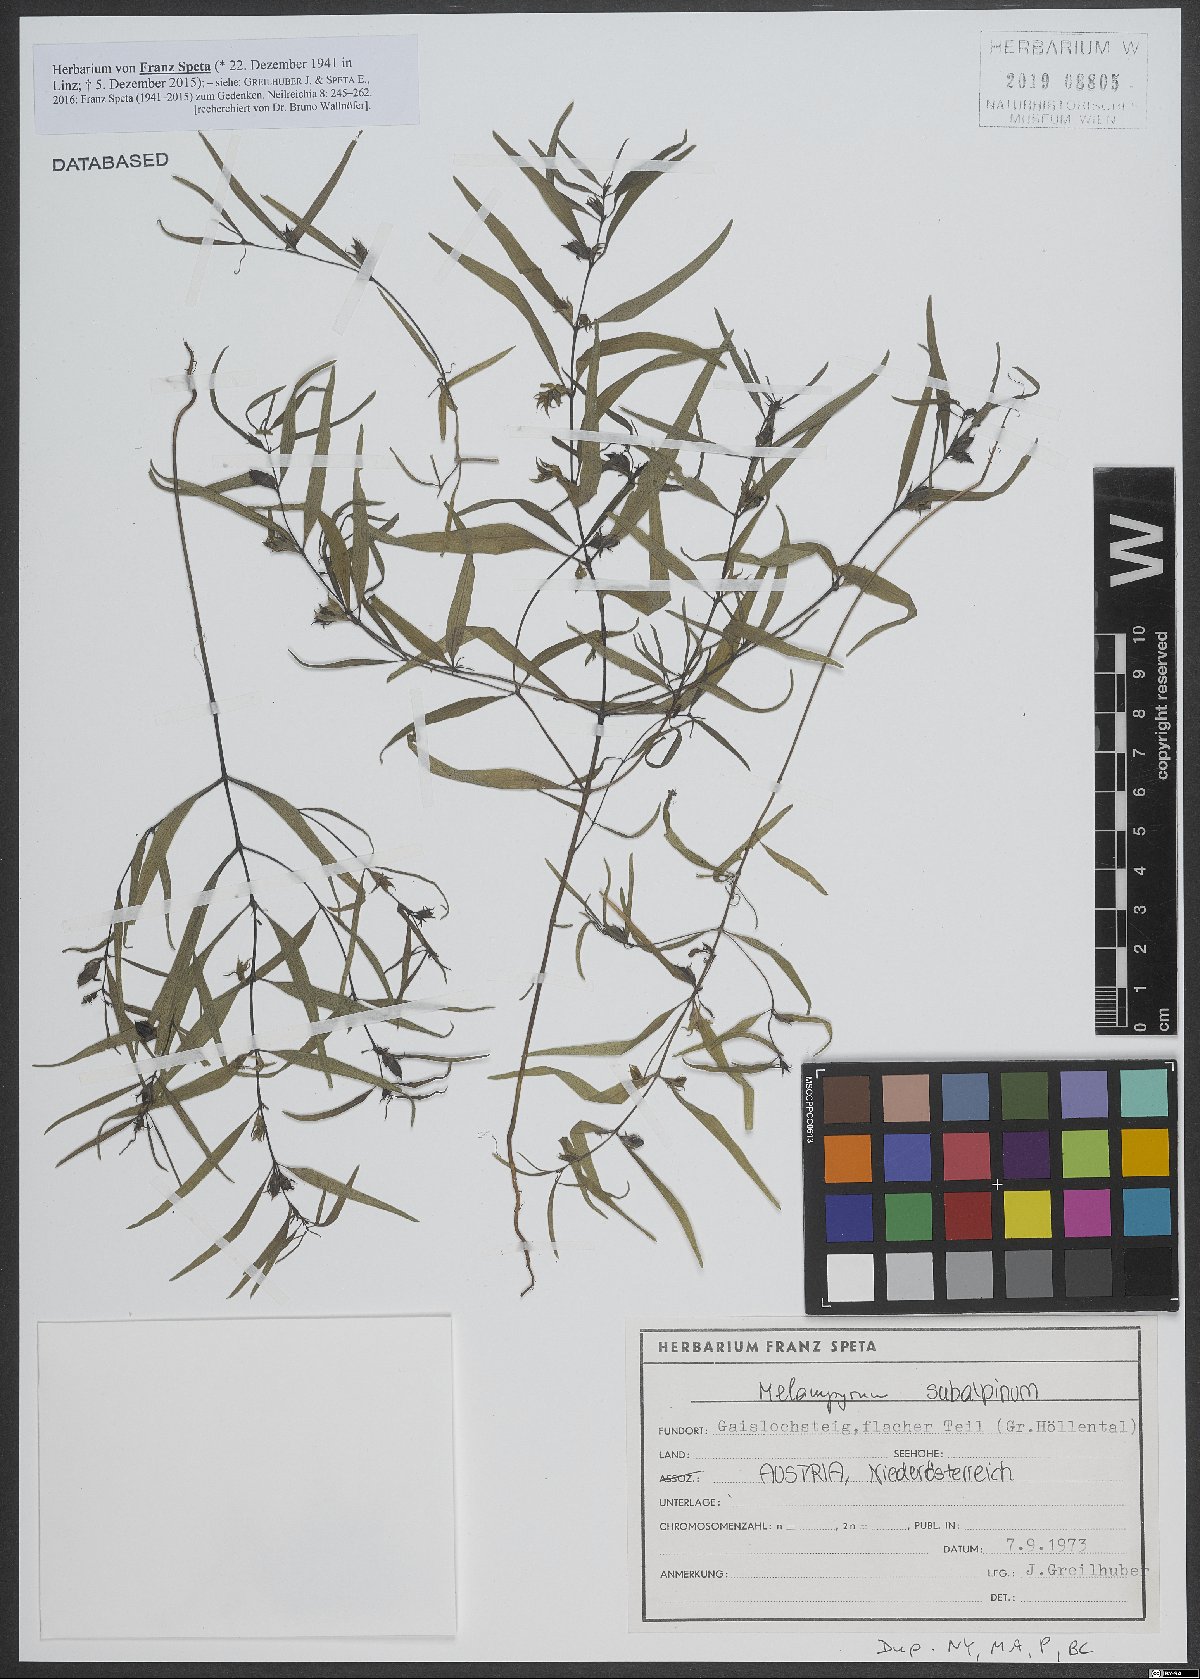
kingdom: Plantae
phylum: Tracheophyta
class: Magnoliopsida
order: Lamiales
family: Orobanchaceae
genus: Melampyrum
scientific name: Melampyrum subalpinum
